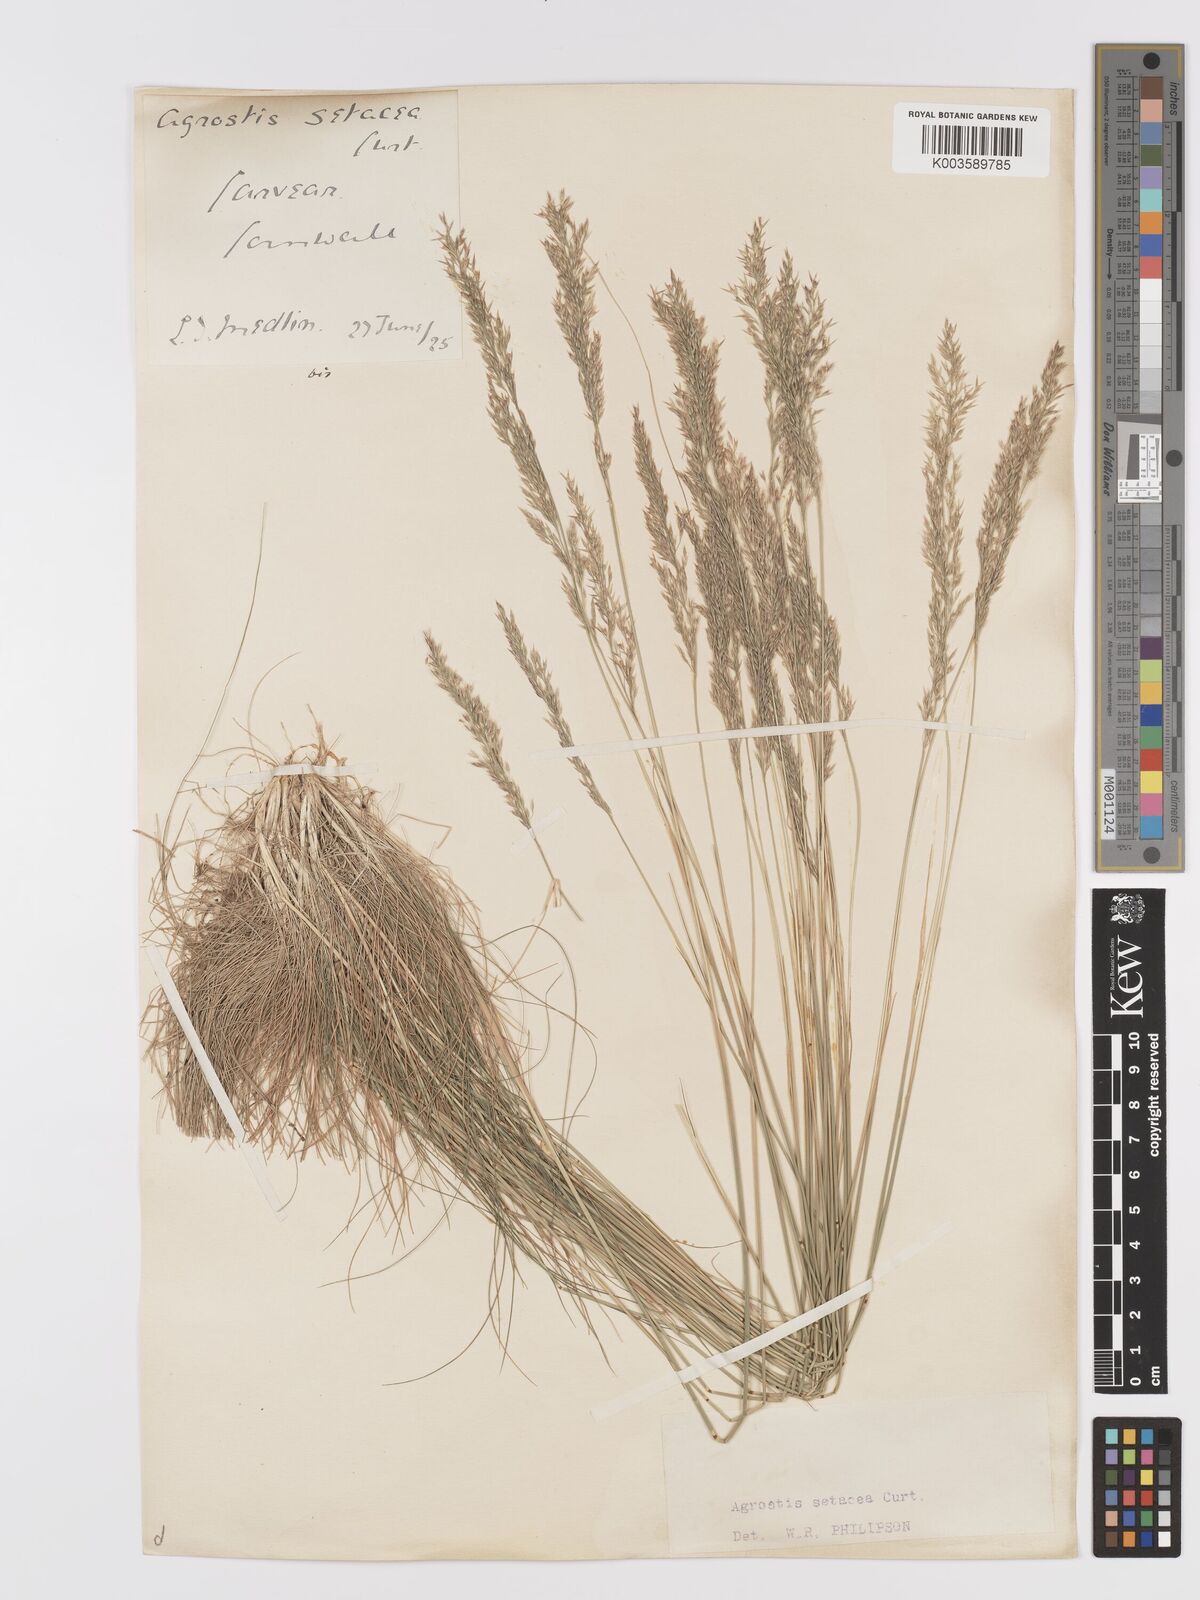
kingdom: Plantae
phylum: Tracheophyta
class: Liliopsida
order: Poales
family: Poaceae
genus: Alpagrostis
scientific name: Alpagrostis setacea
